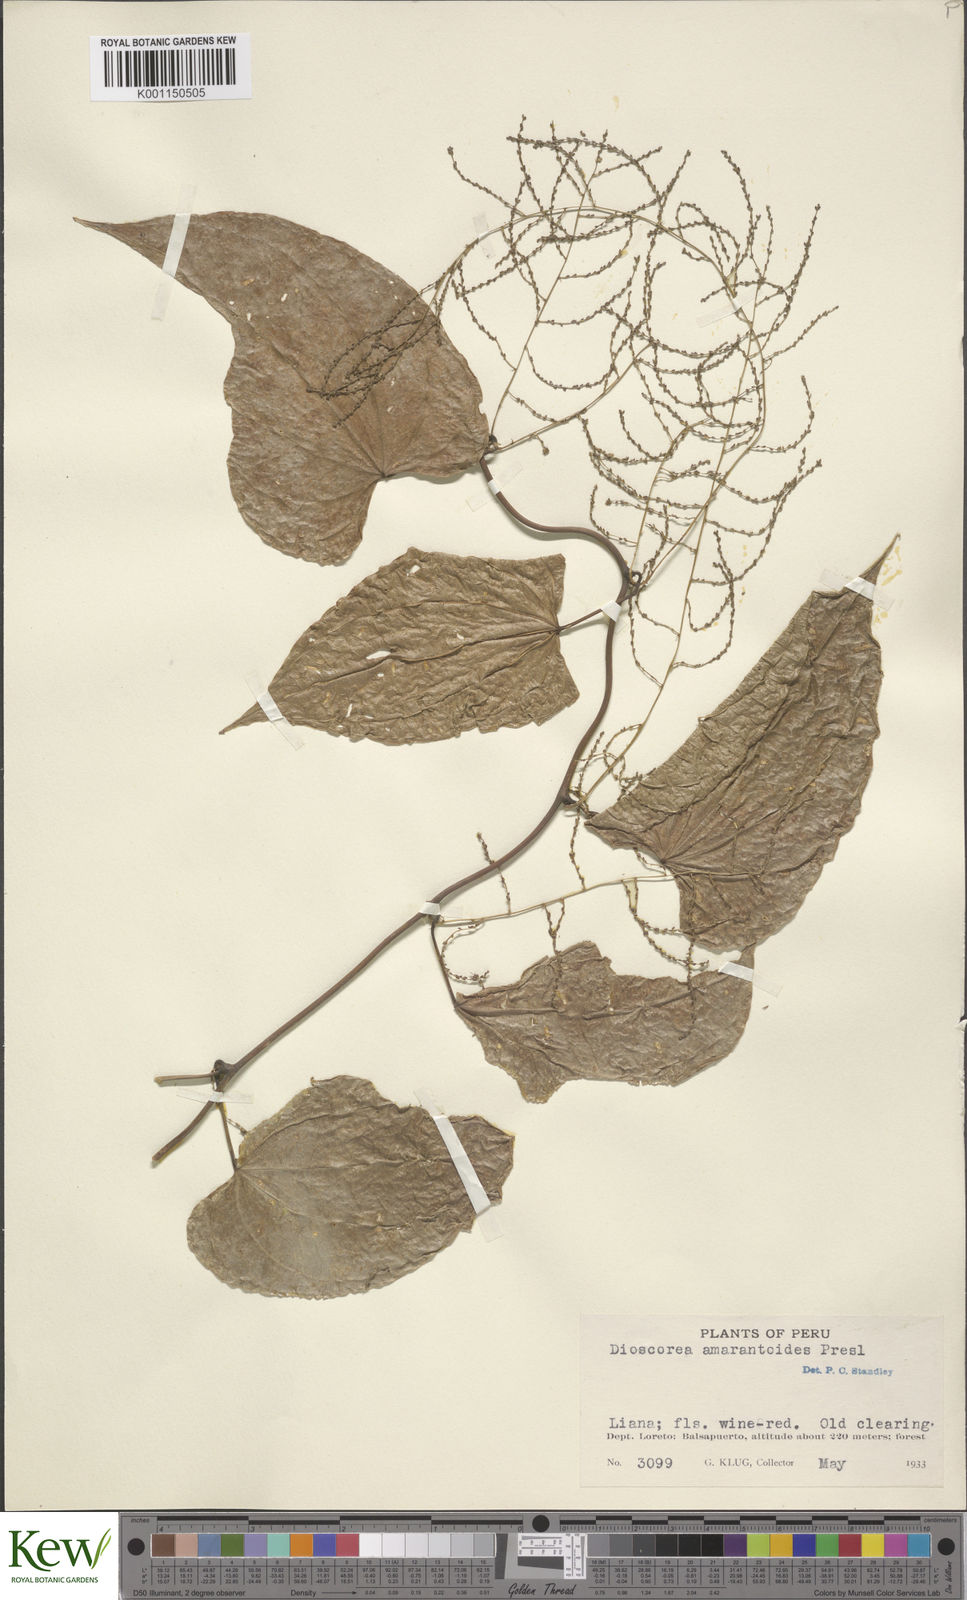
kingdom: Plantae
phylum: Tracheophyta
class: Liliopsida
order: Dioscoreales
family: Dioscoreaceae
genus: Dioscorea
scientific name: Dioscorea amaranthoides
